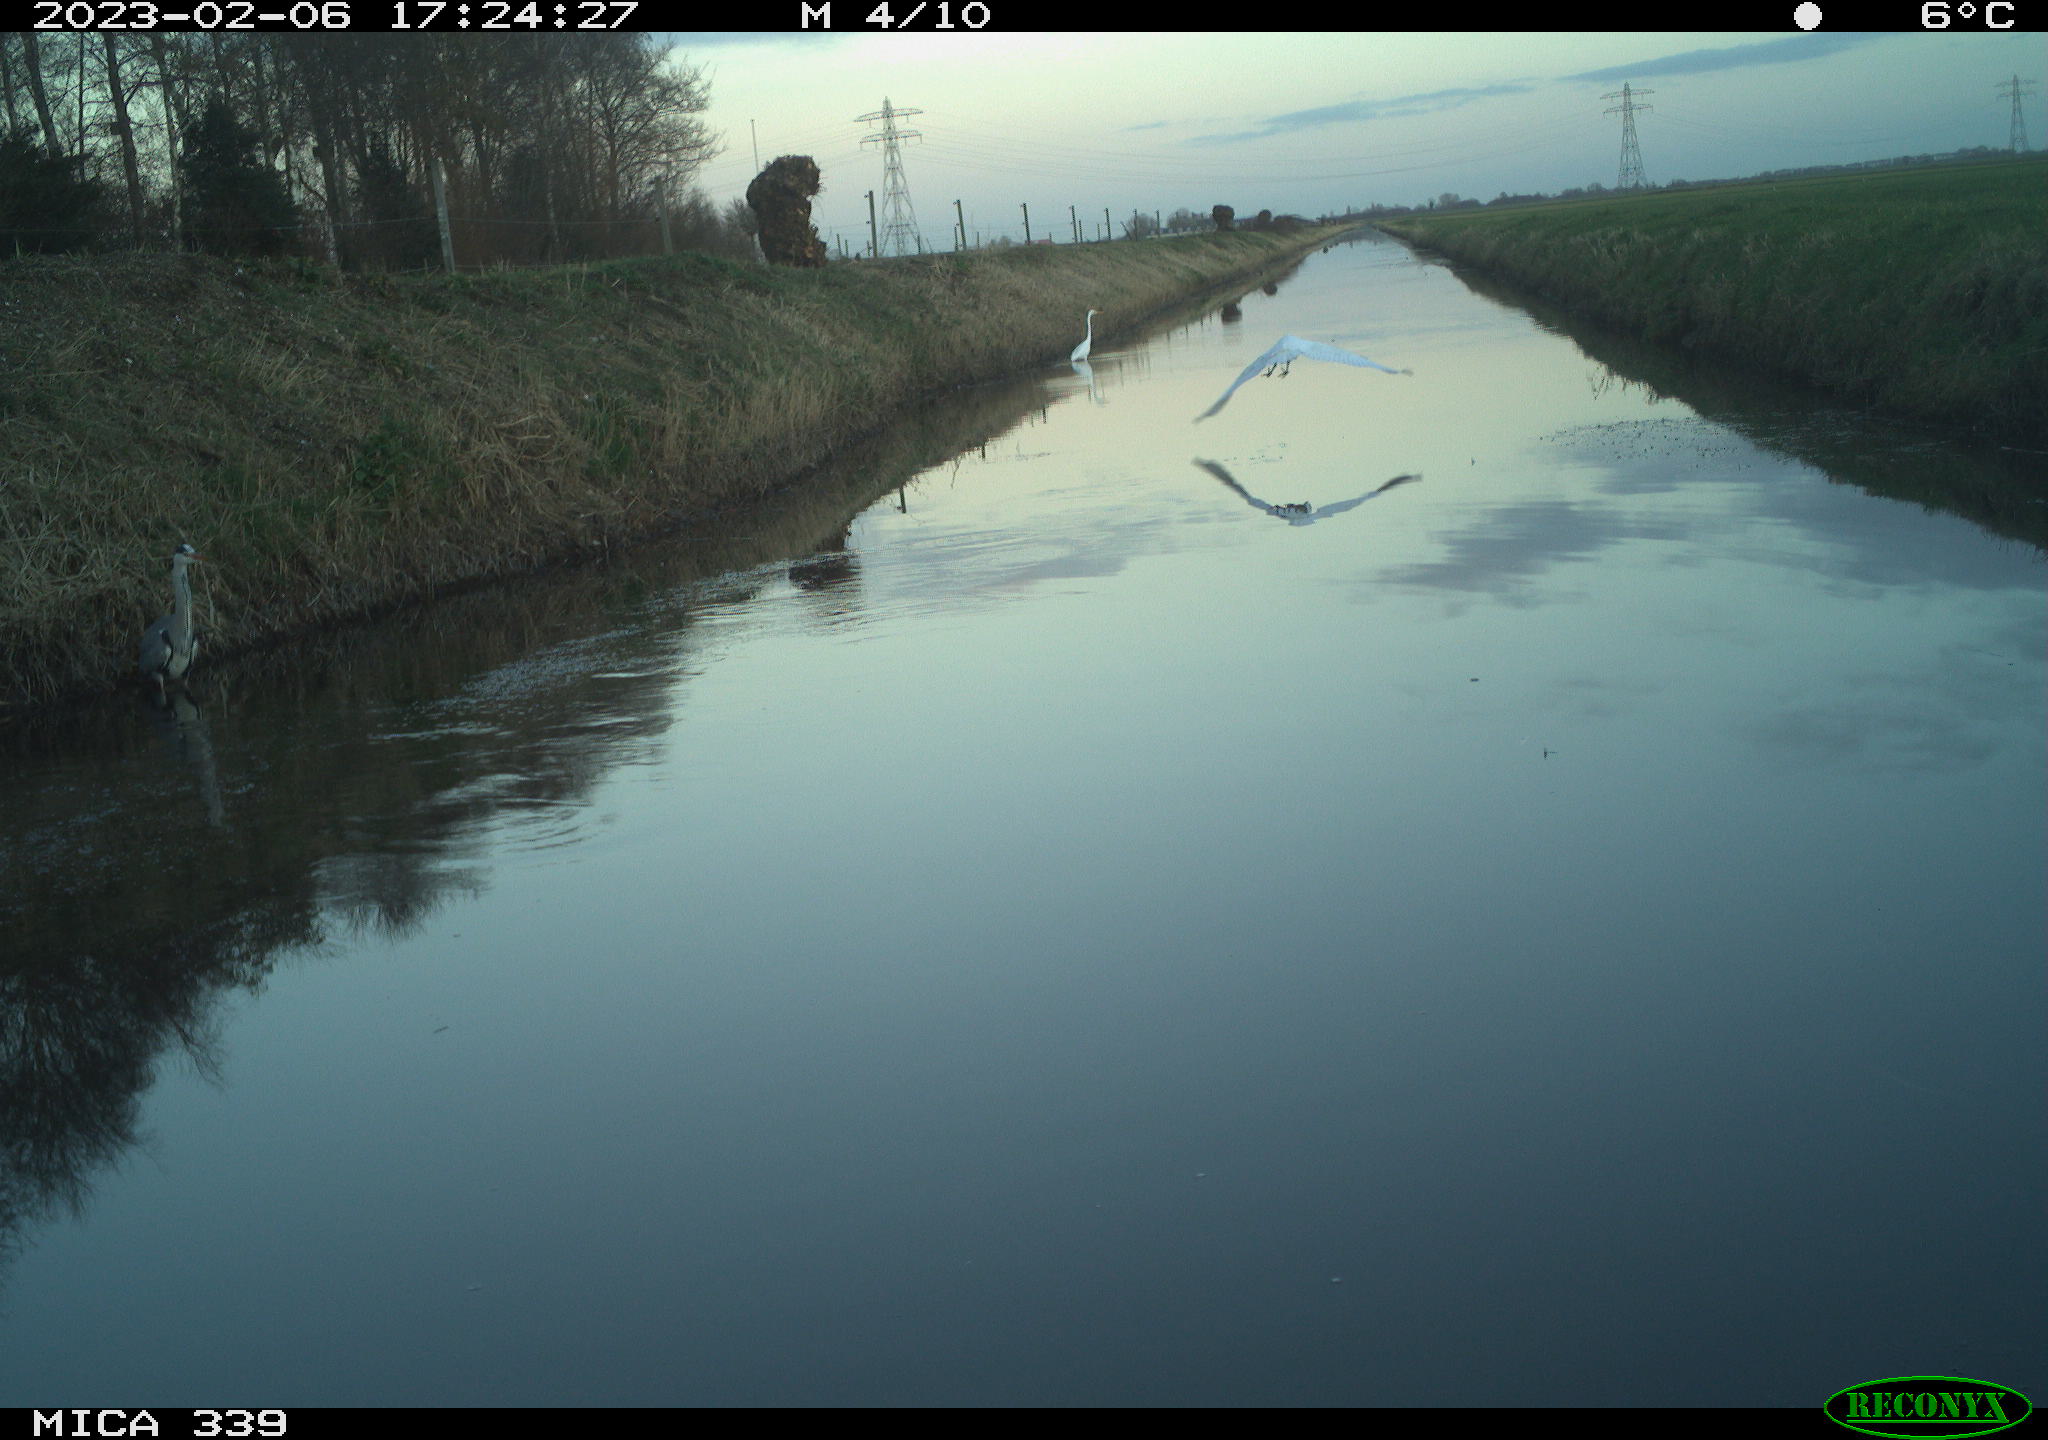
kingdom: Animalia
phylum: Chordata
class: Aves
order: Pelecaniformes
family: Ardeidae
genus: Ardea
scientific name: Ardea cinerea
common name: Grey heron
